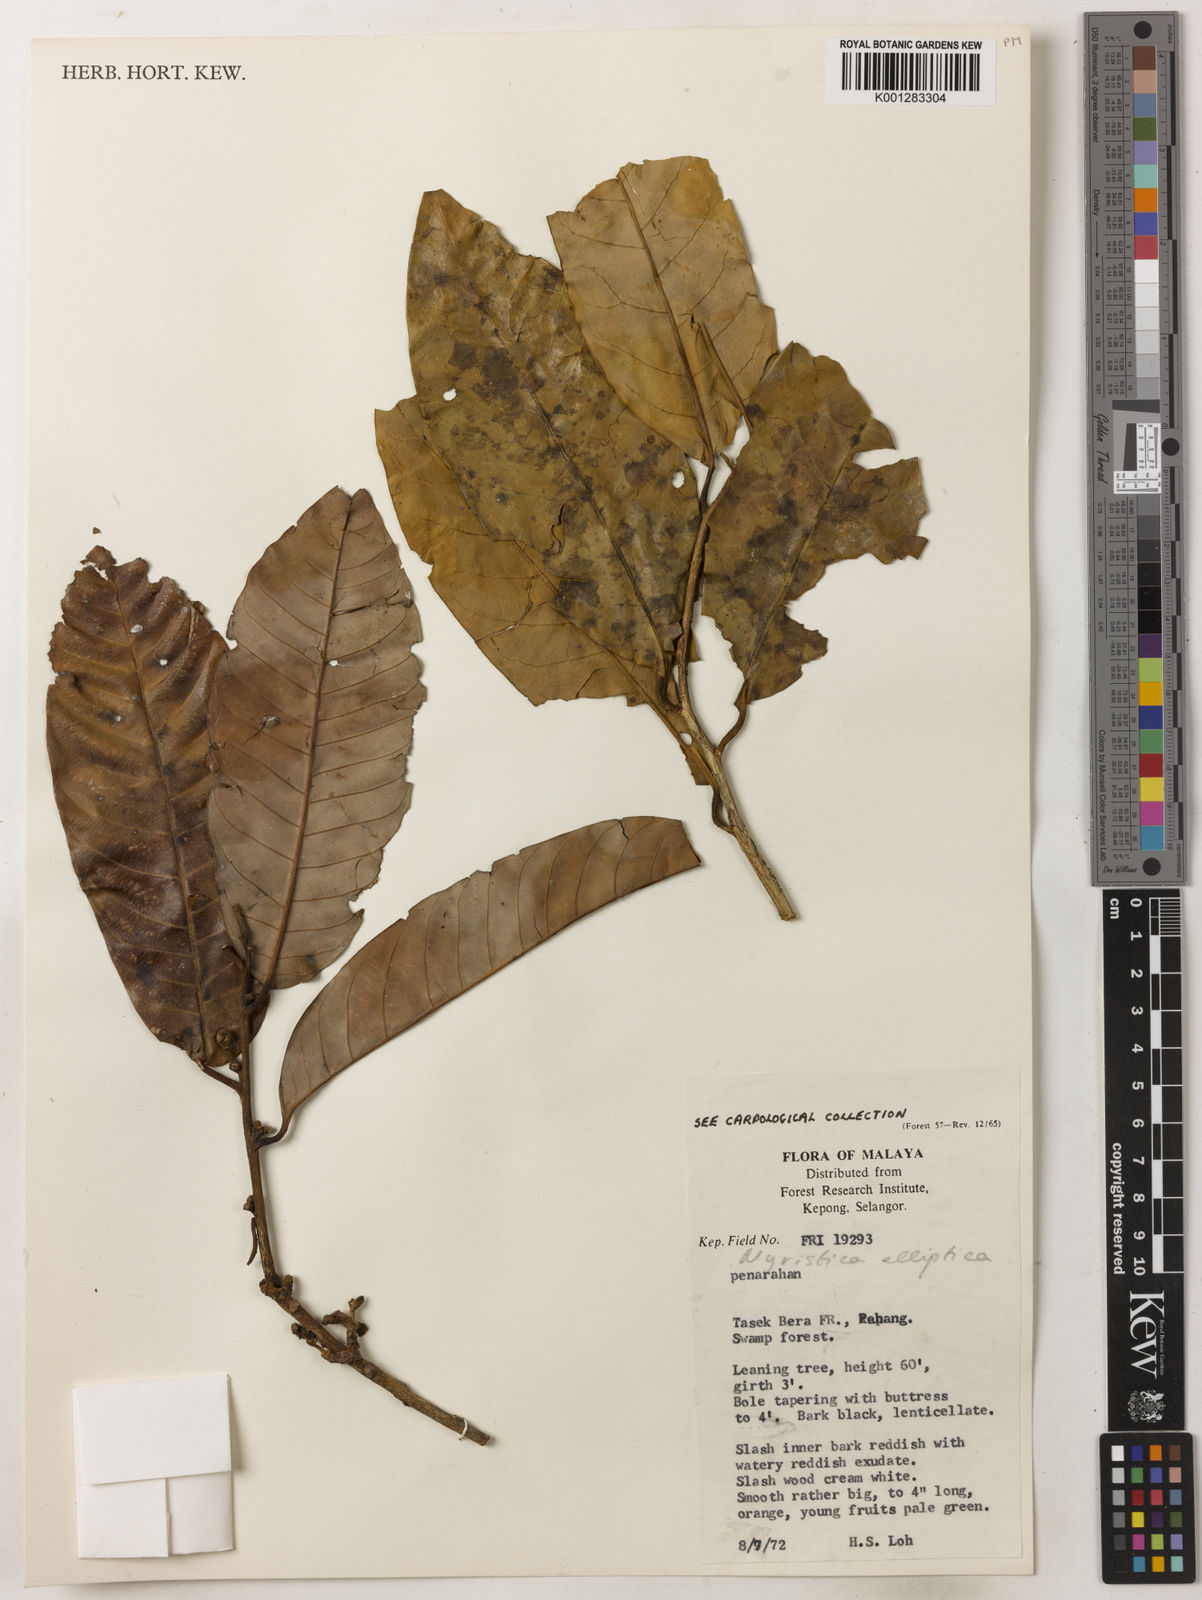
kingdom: Plantae
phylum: Tracheophyta
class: Magnoliopsida
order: Magnoliales
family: Myristicaceae
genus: Myristica
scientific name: Myristica elliptica
